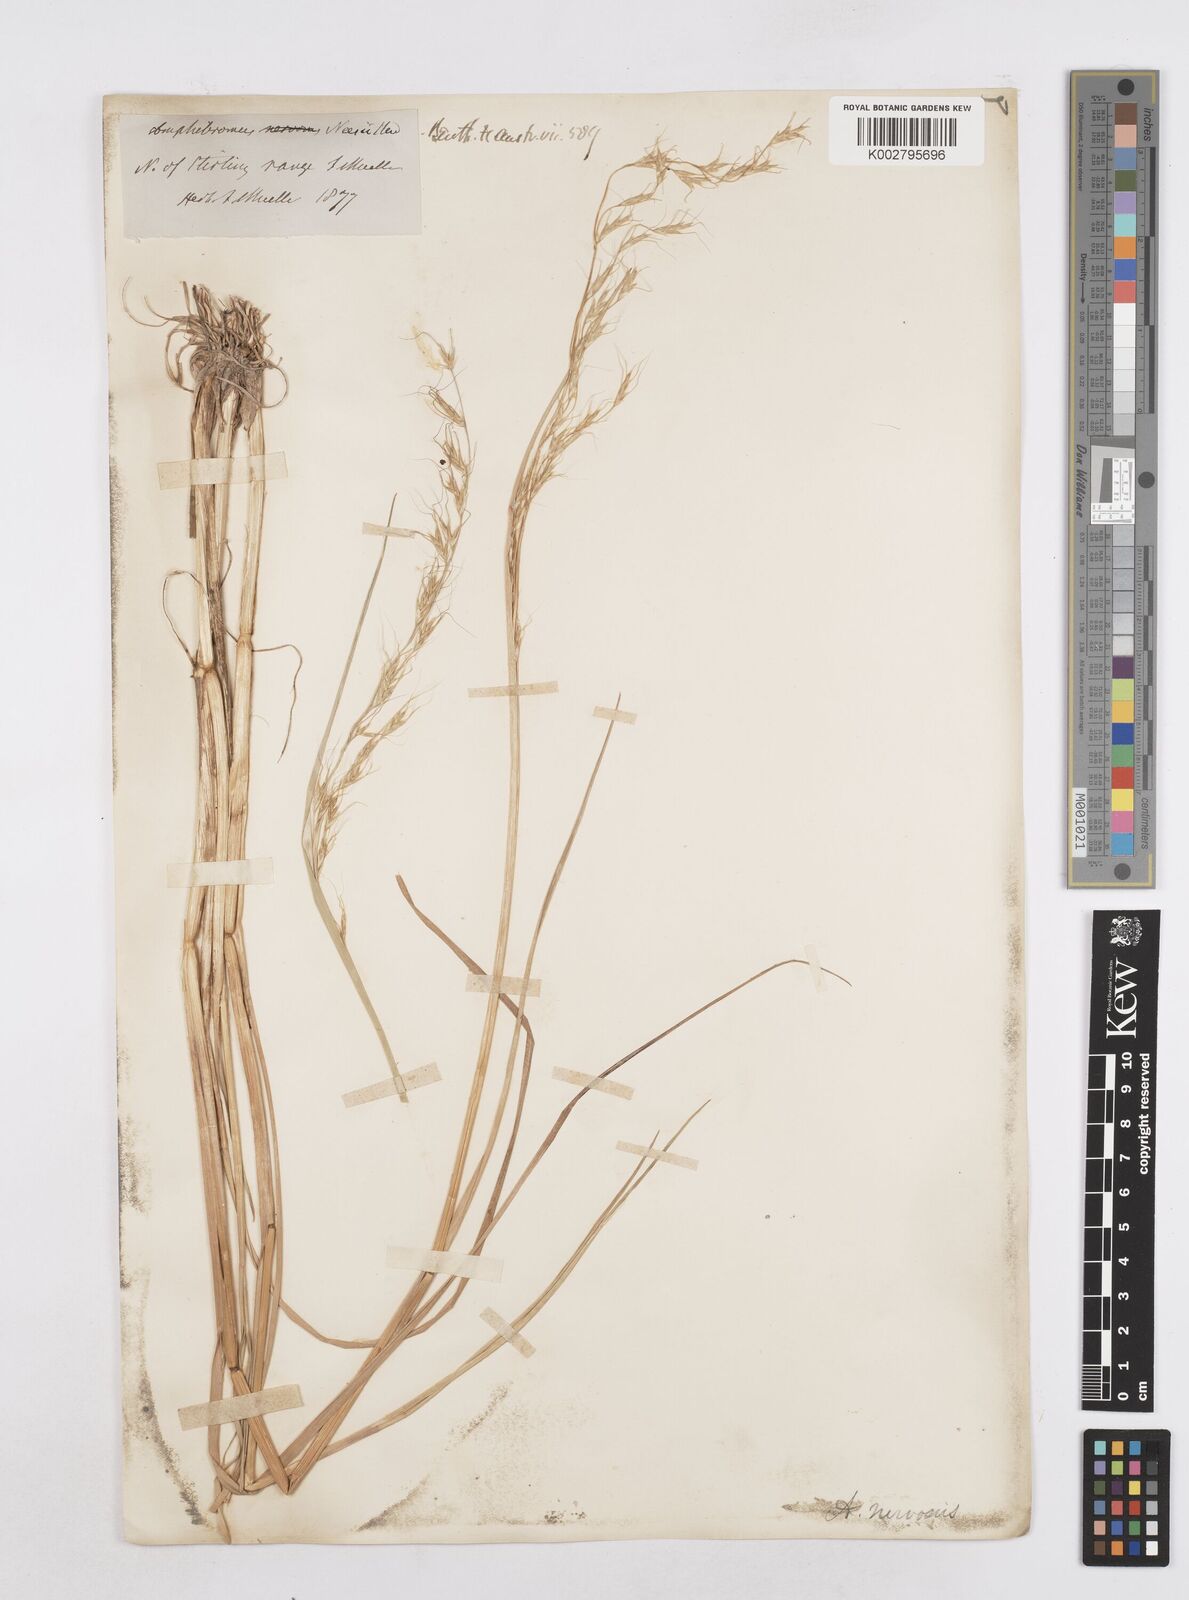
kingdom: Plantae
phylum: Tracheophyta
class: Liliopsida
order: Poales
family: Poaceae
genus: Amphibromus
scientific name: Amphibromus neesii
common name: Australian wallaby grass
